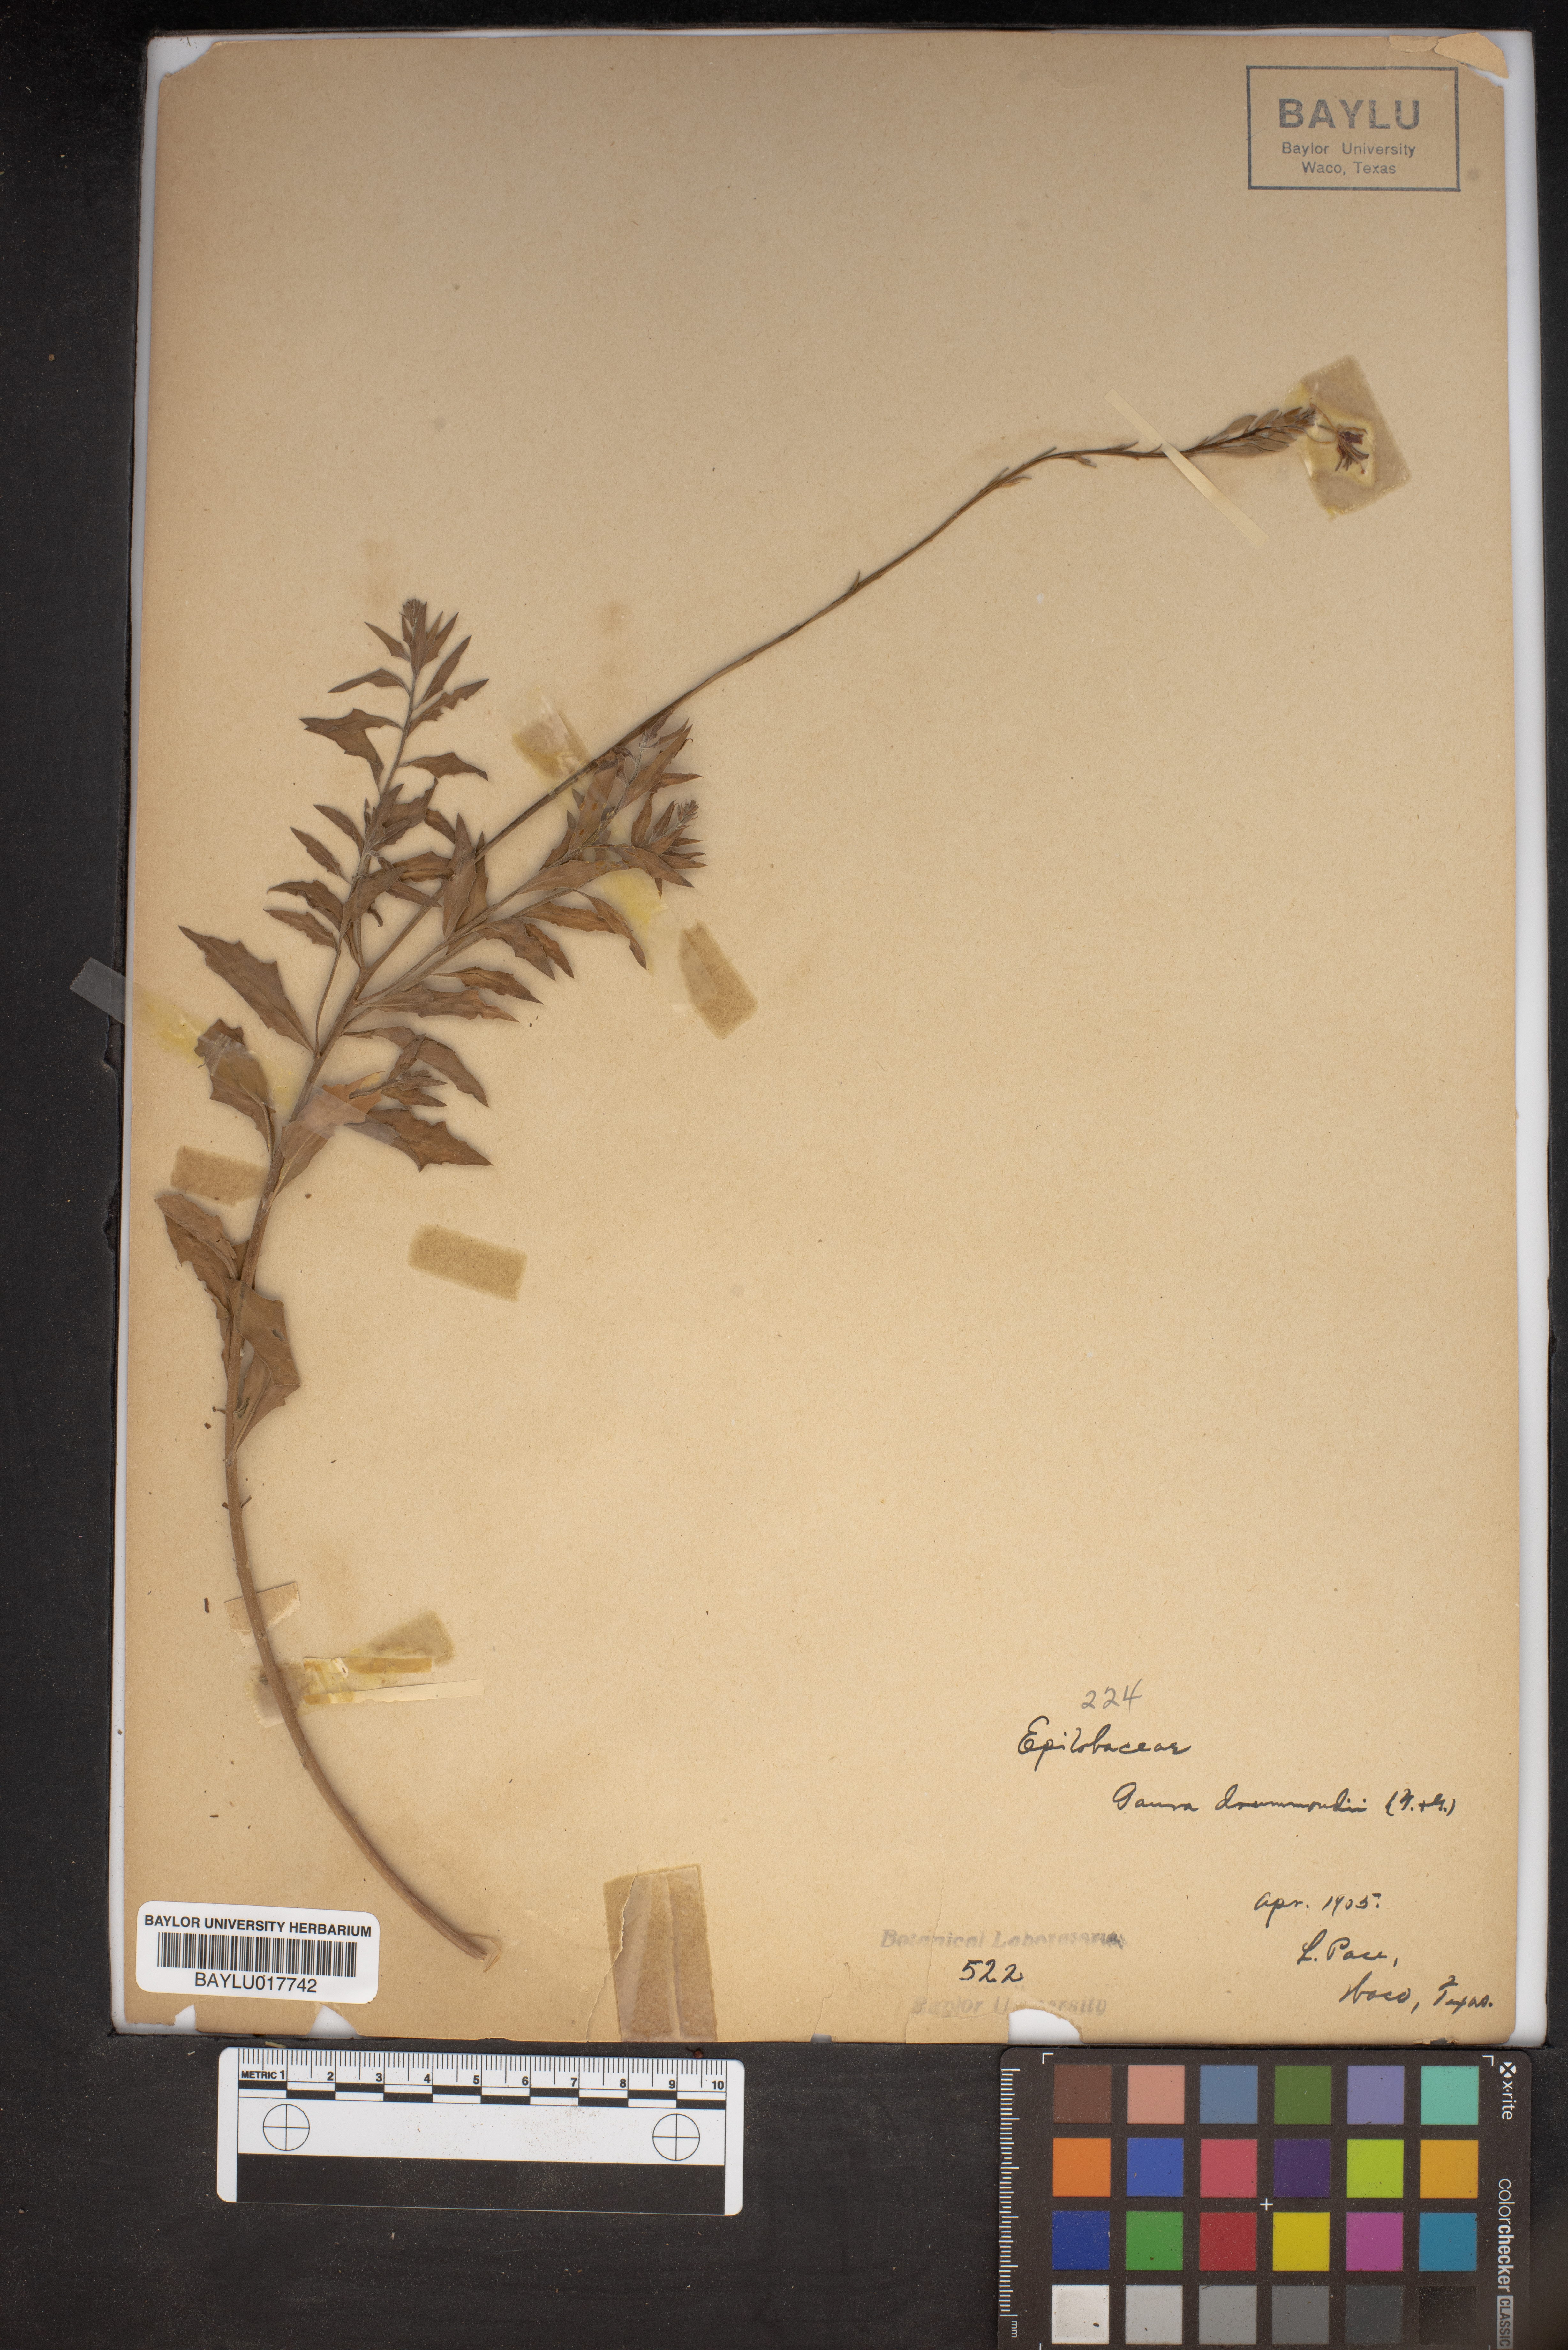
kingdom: Plantae
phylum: Tracheophyta
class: Magnoliopsida
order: Myrtales
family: Onagraceae
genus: Oenothera
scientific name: Oenothera hispida
